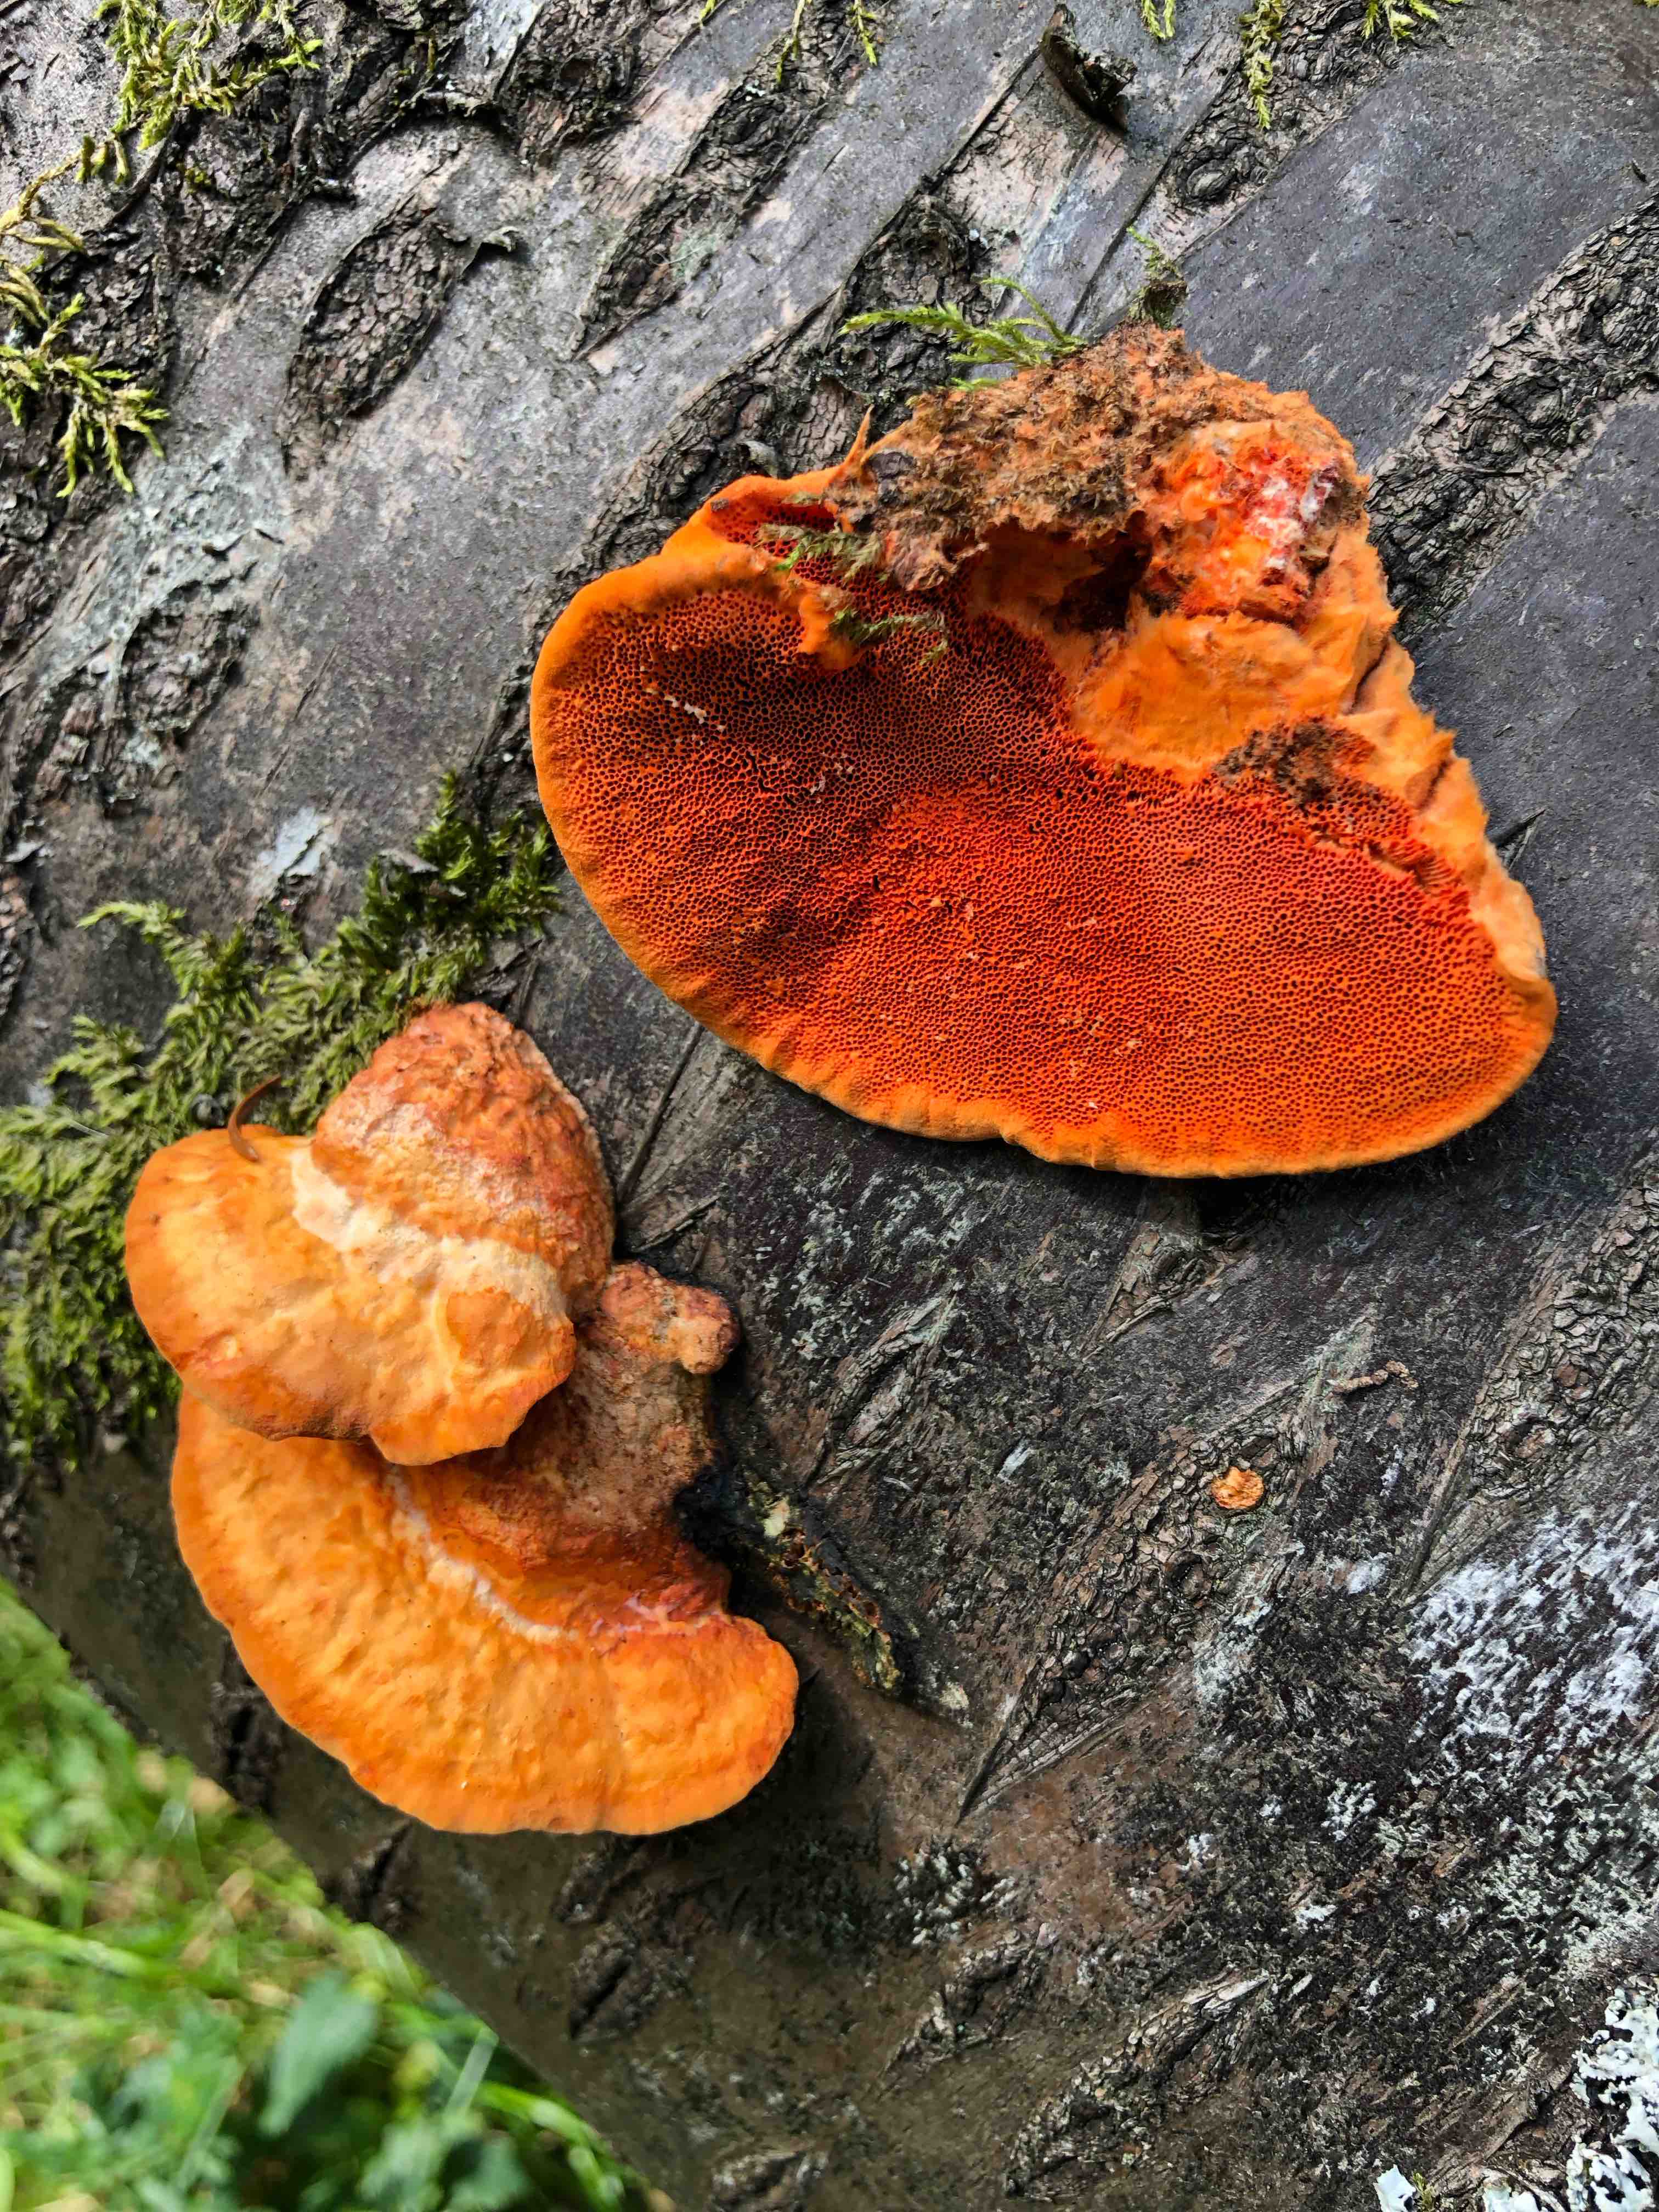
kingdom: Fungi
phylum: Basidiomycota
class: Agaricomycetes
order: Polyporales
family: Polyporaceae
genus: Trametes
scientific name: Trametes cinnabarina
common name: cinnoberporesvamp
